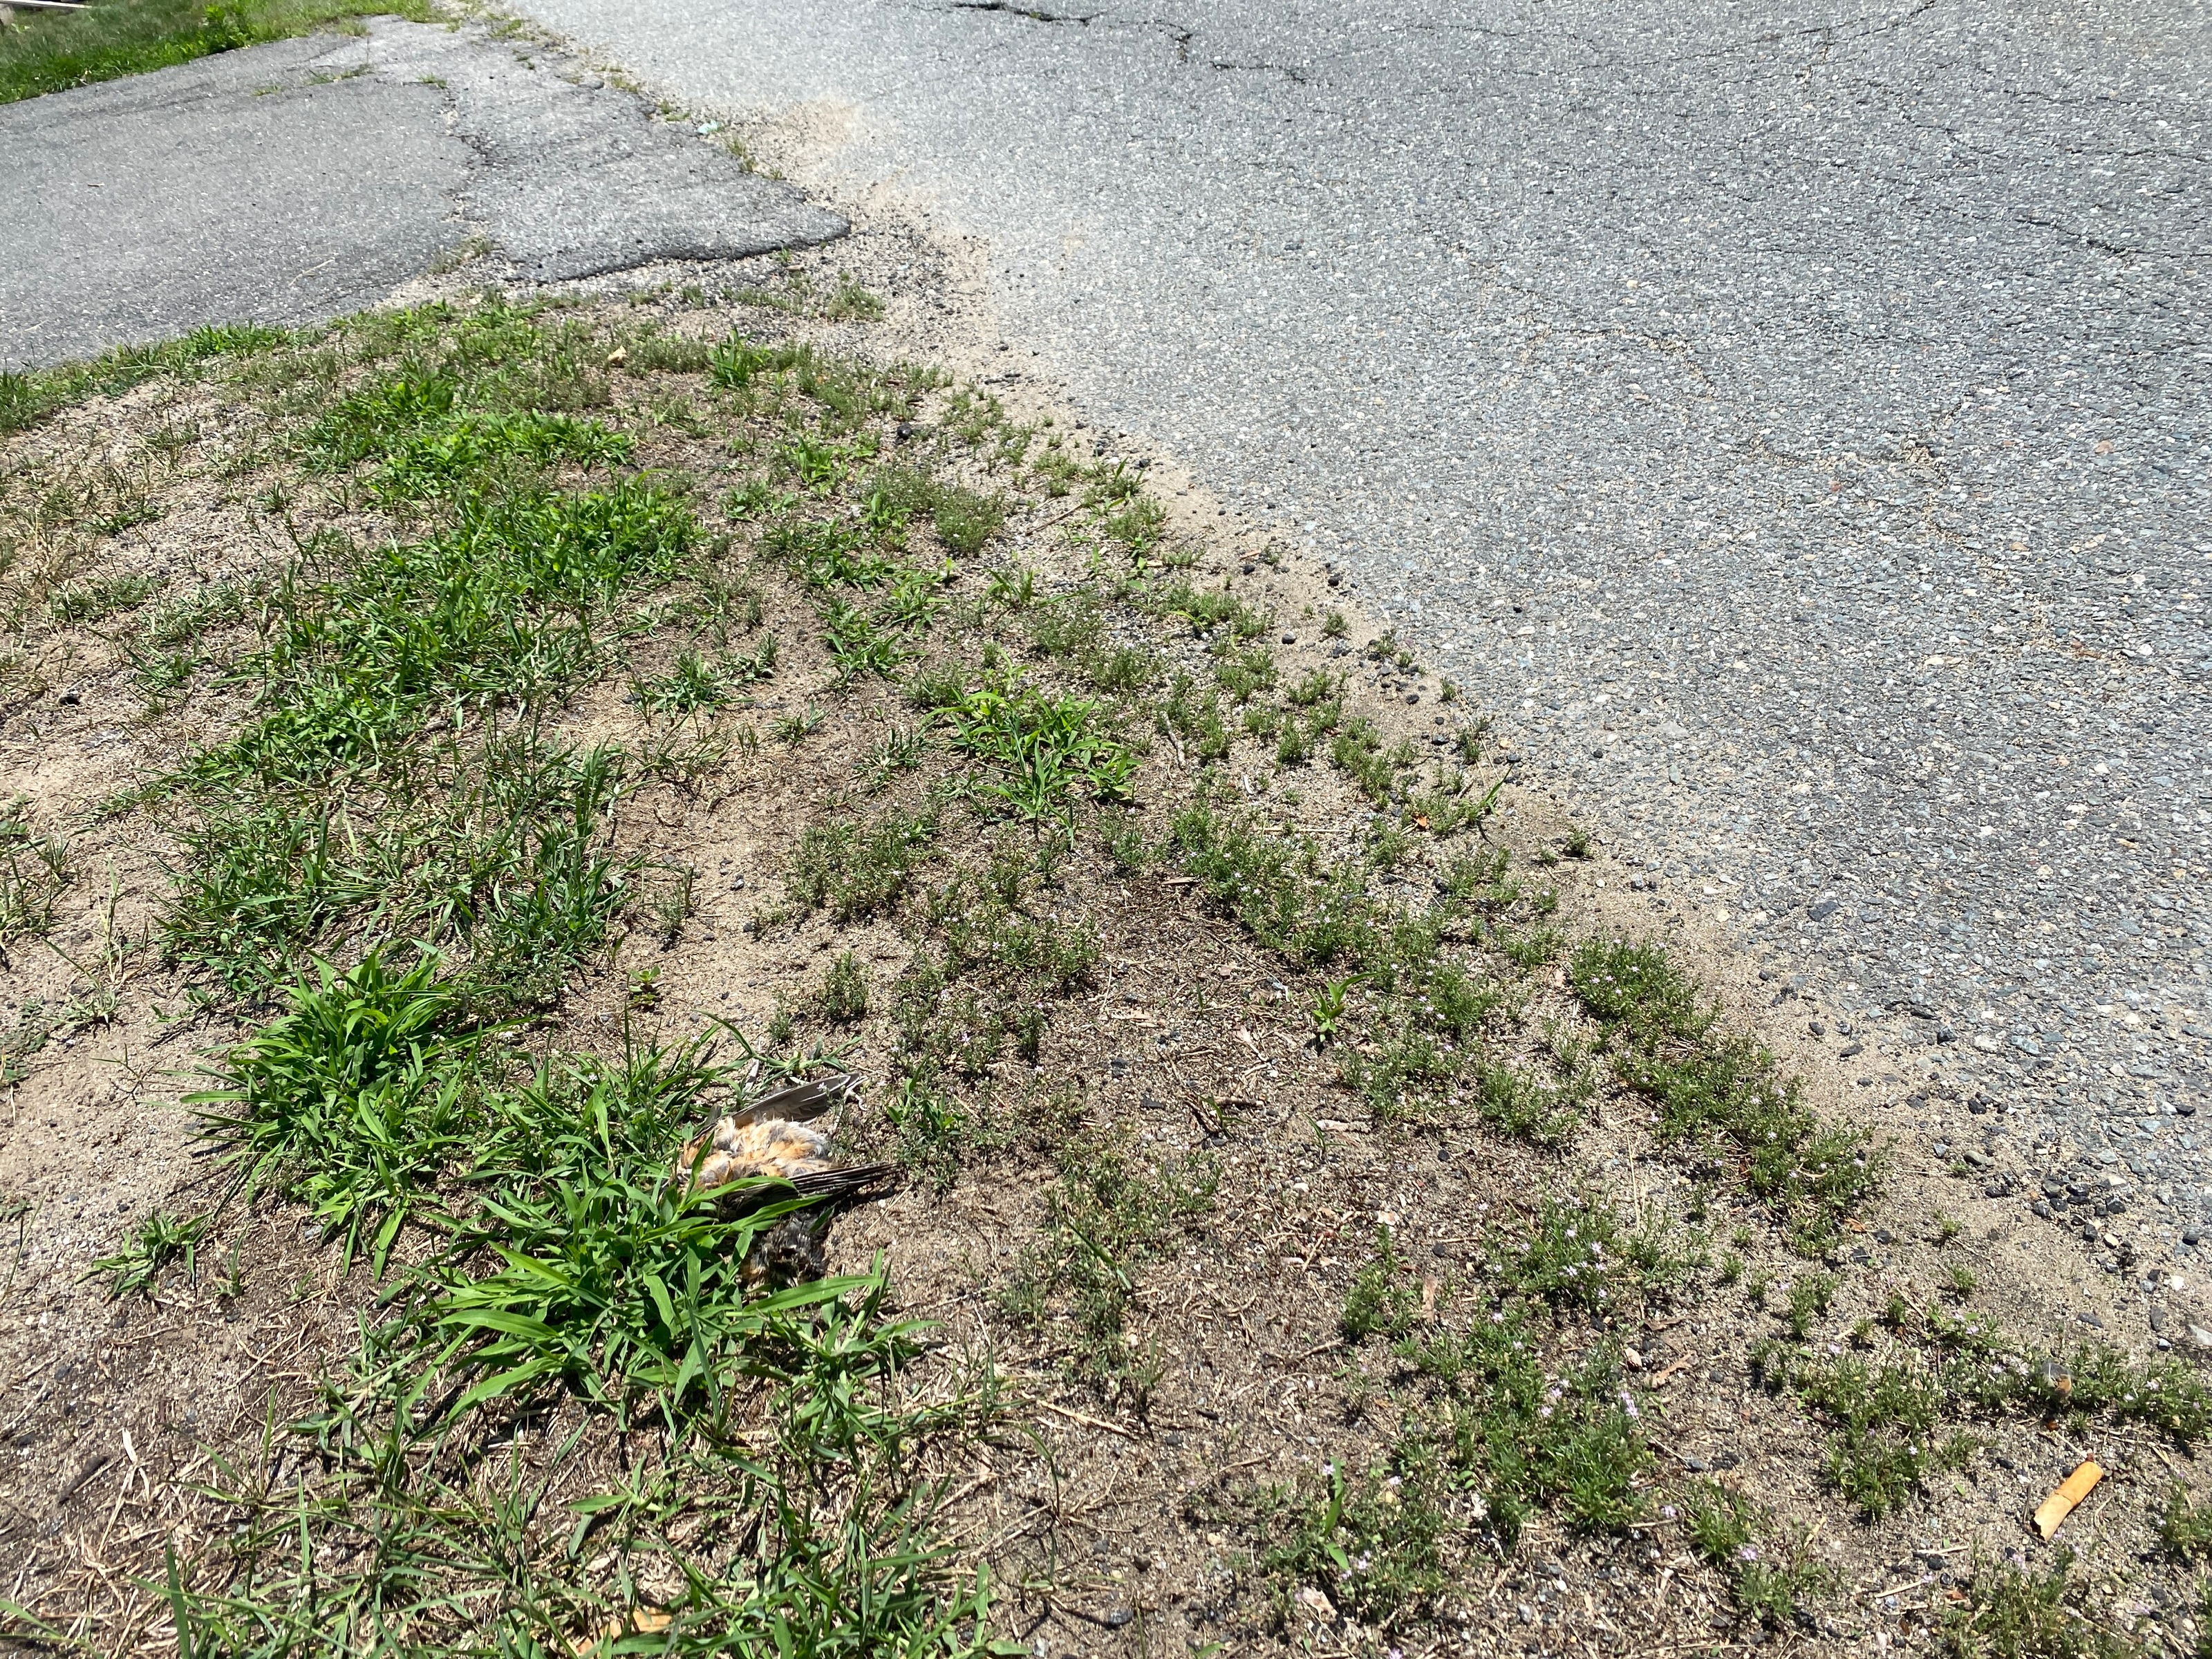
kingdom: Animalia
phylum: Chordata
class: Aves
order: Passeriformes
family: Turdidae
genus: Turdus
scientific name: Turdus migratorius
